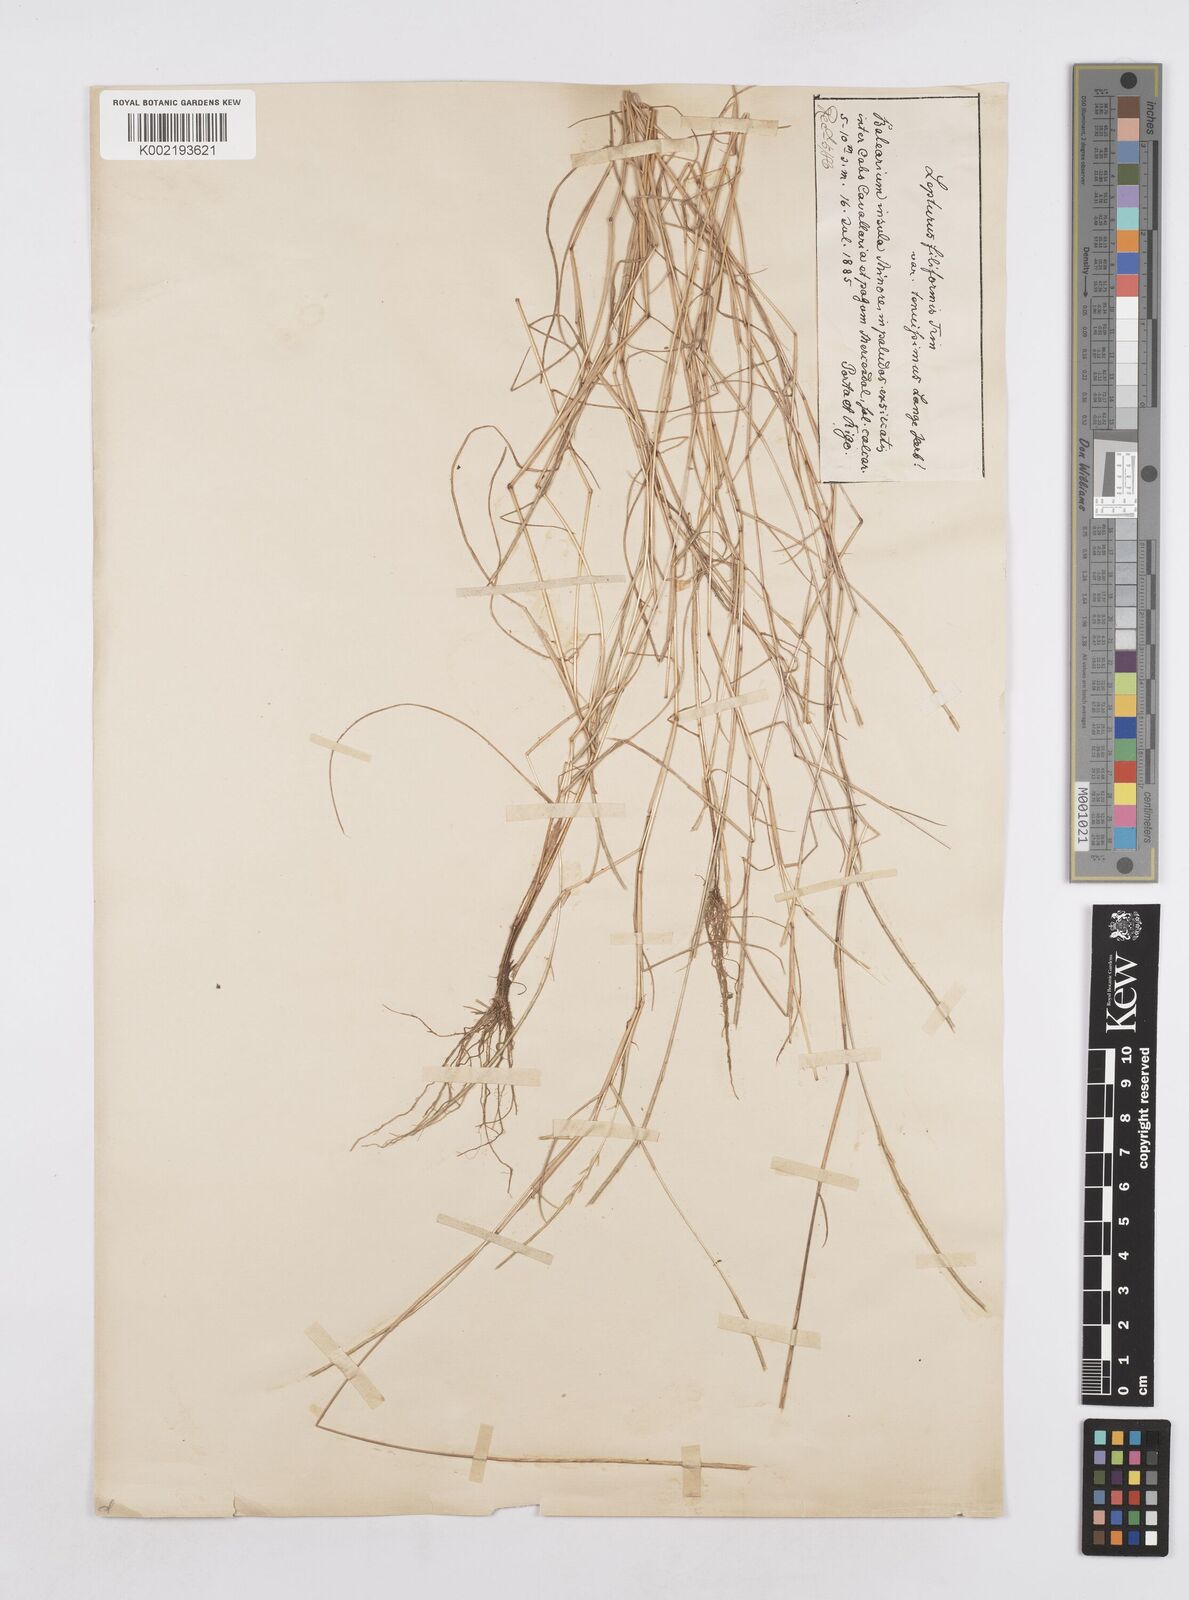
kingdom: Plantae
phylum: Tracheophyta
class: Liliopsida
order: Poales
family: Poaceae
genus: Parapholis
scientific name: Parapholis filiformis
